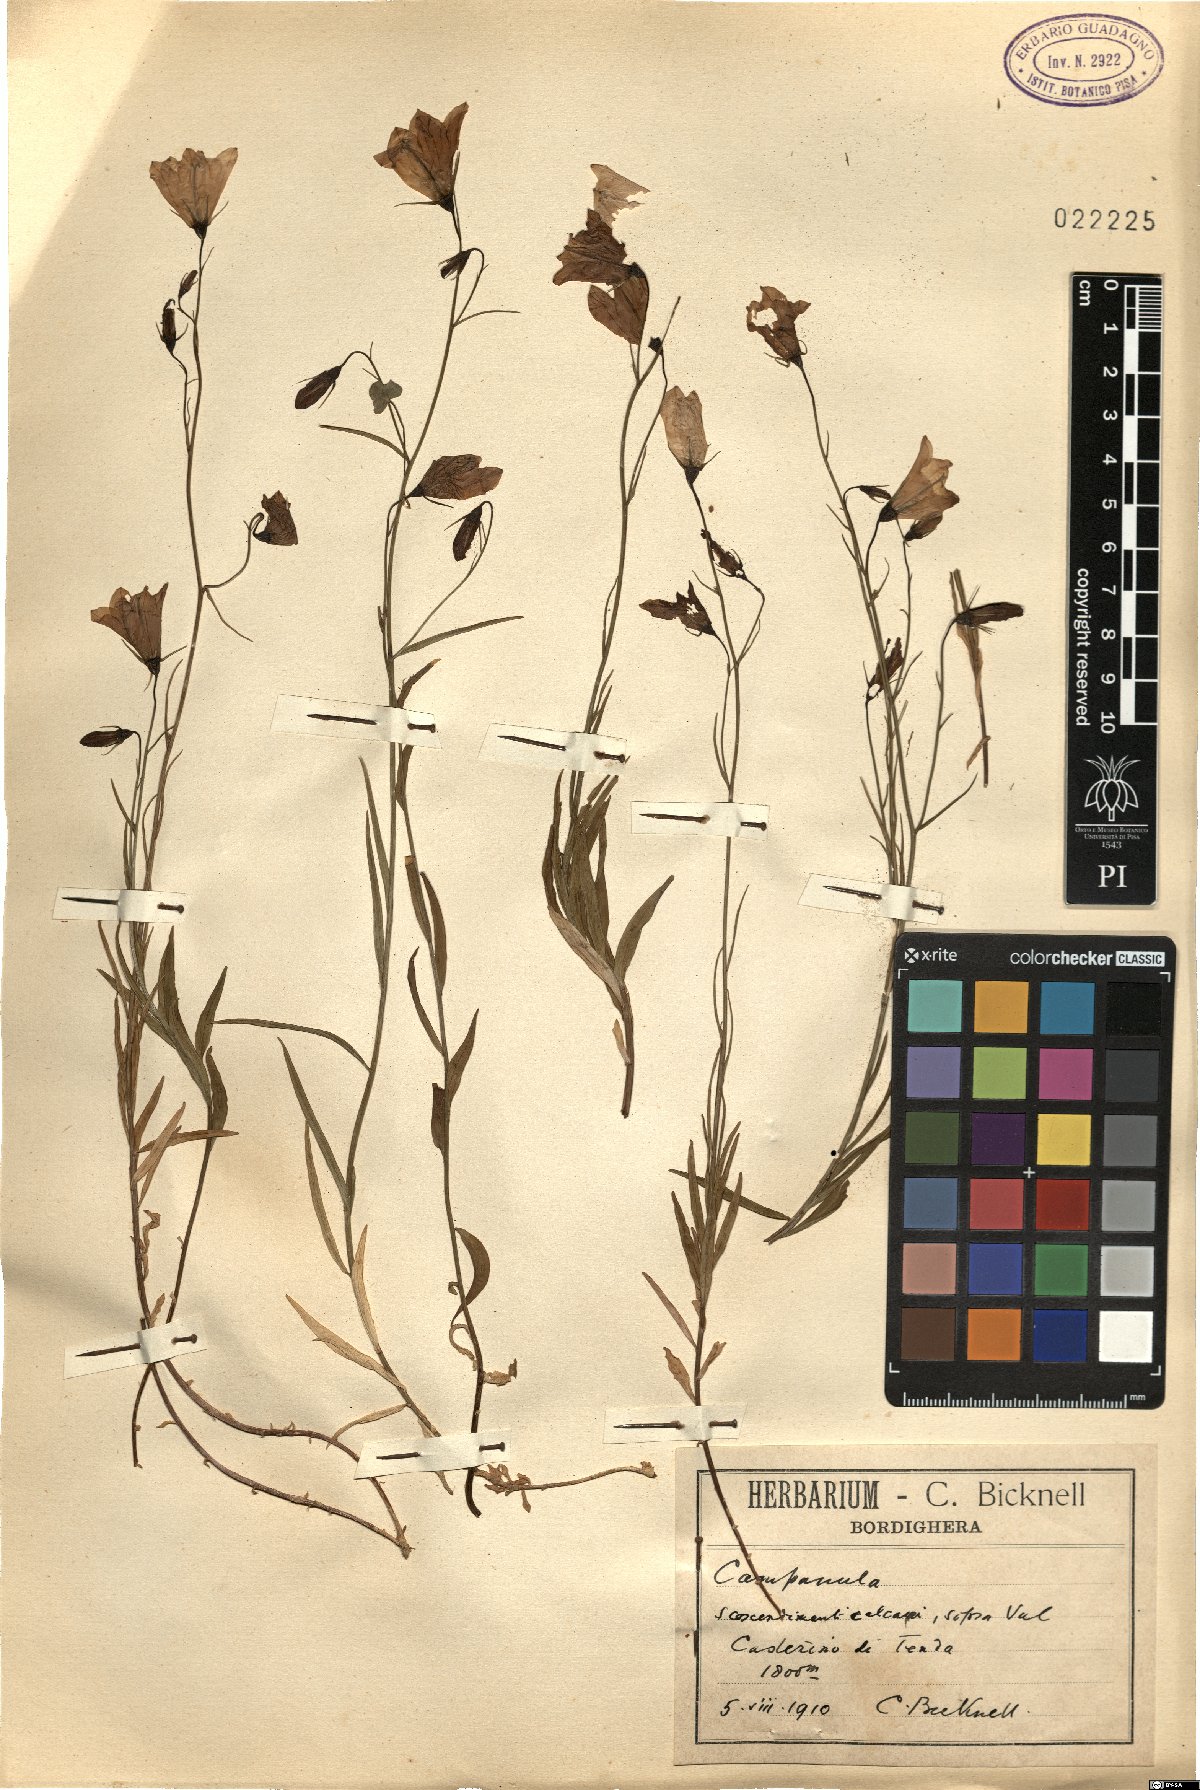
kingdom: Plantae
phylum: Tracheophyta
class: Magnoliopsida
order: Asterales
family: Campanulaceae
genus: Campanula
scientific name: Campanula
